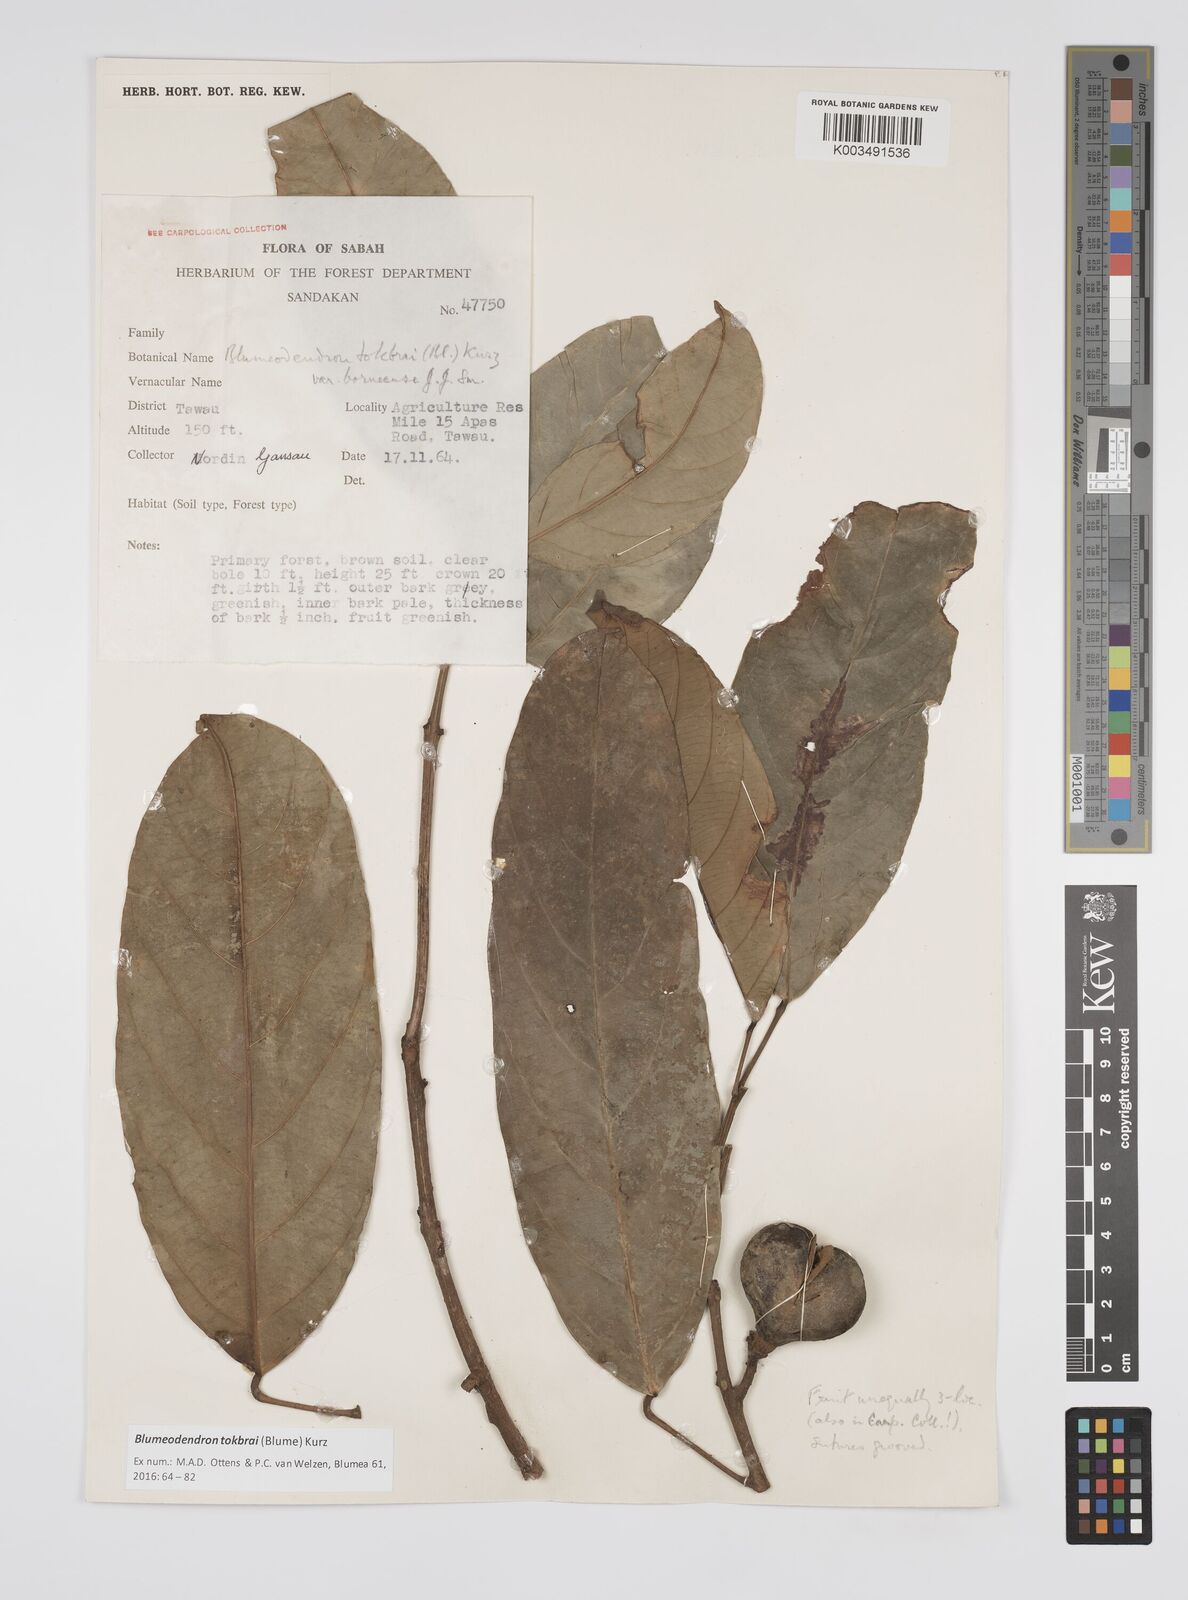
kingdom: Plantae
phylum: Tracheophyta
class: Magnoliopsida
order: Malpighiales
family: Euphorbiaceae
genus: Blumeodendron
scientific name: Blumeodendron tokbrai
